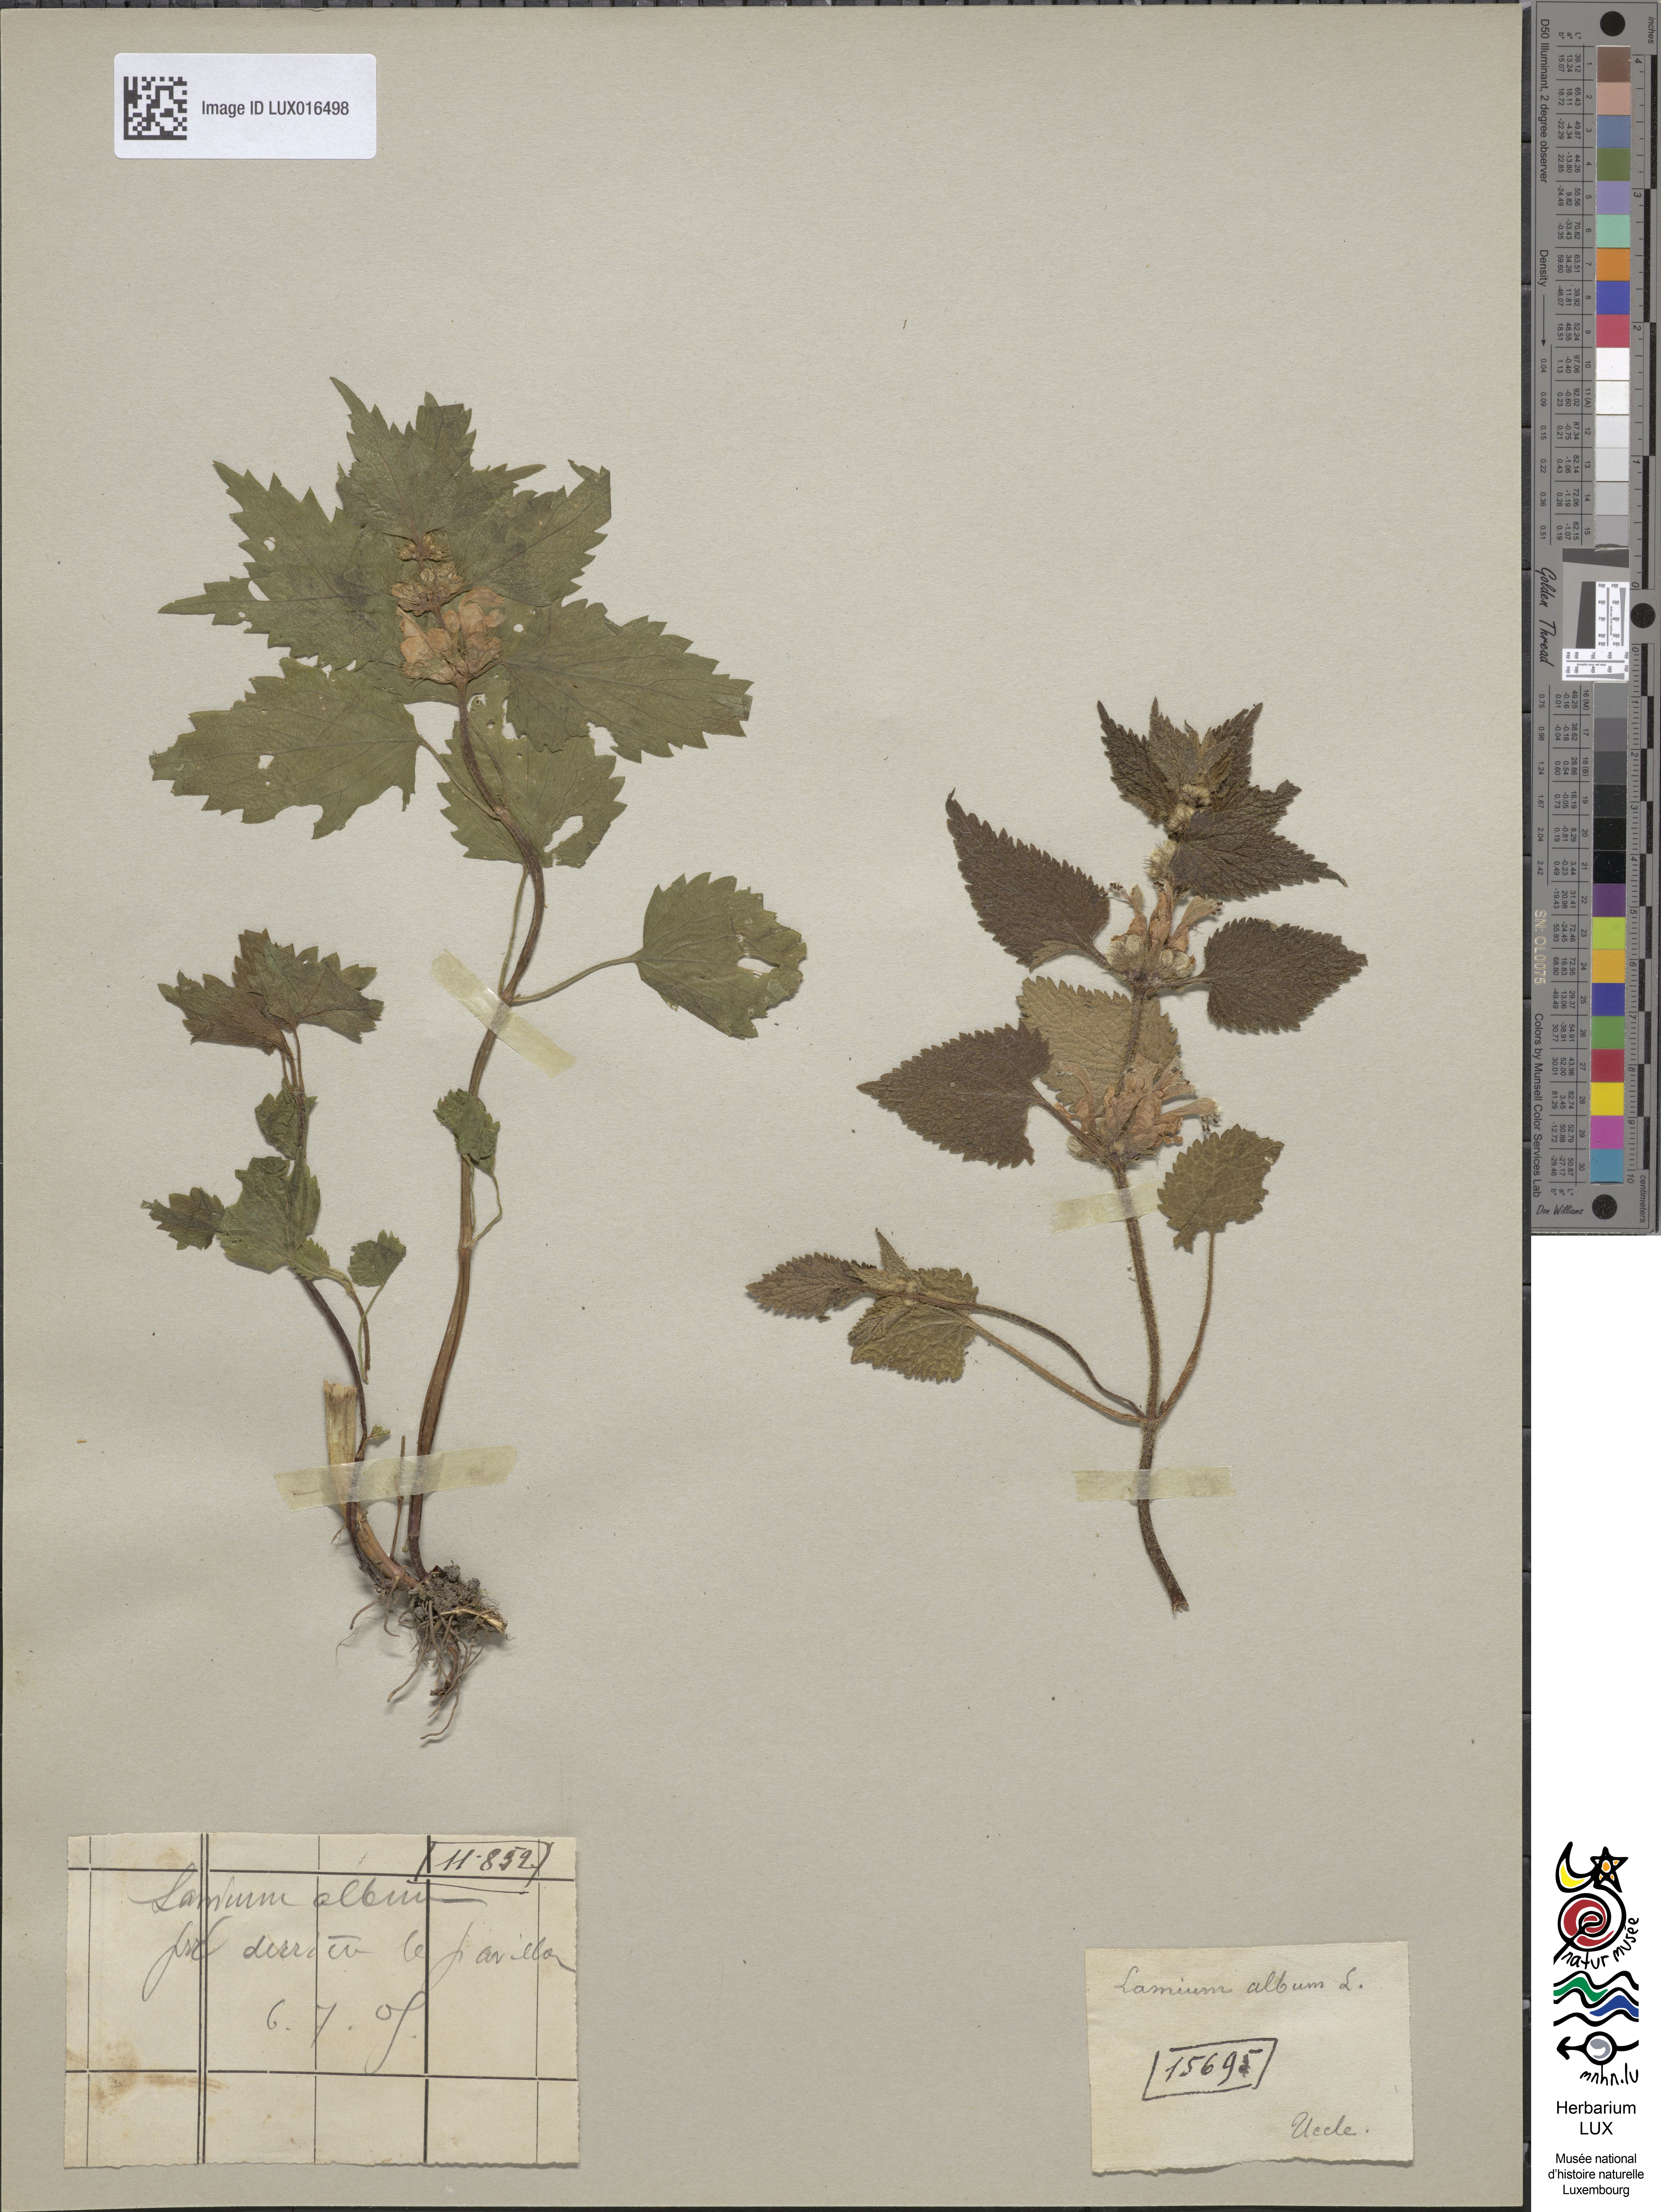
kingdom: Plantae
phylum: Tracheophyta
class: Magnoliopsida
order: Lamiales
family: Lamiaceae
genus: Lamium
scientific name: Lamium album
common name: White dead-nettle
